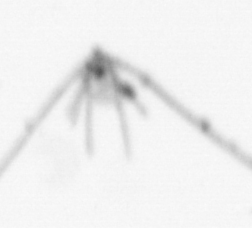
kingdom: Animalia
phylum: Echinodermata
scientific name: Echinodermata
